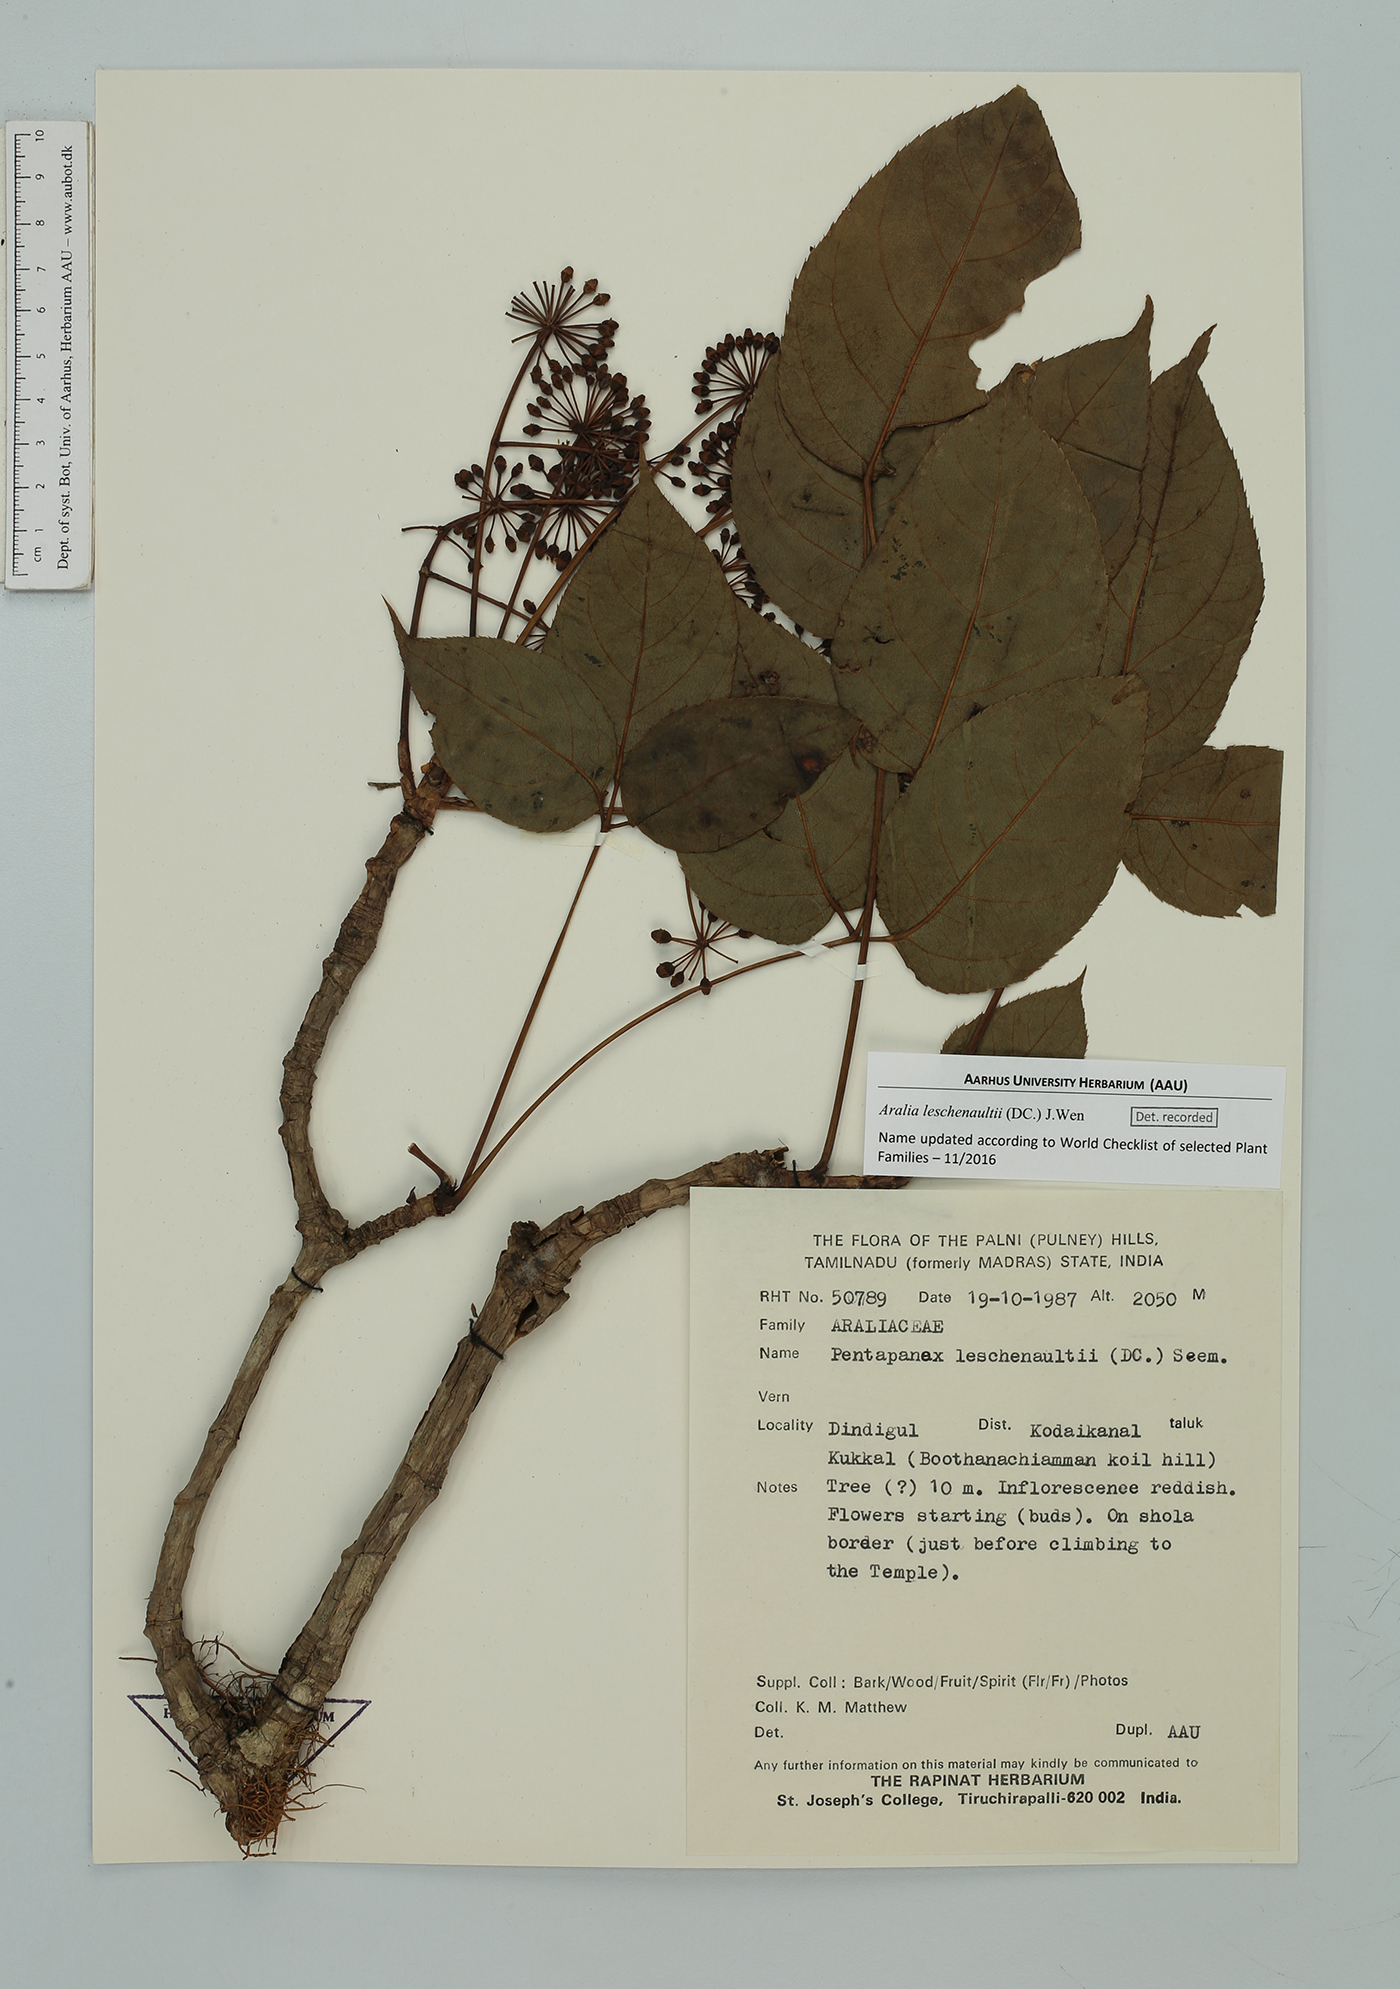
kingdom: Plantae
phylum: Tracheophyta
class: Magnoliopsida
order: Apiales
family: Araliaceae
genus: Aralia
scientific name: Aralia leschenaultii
